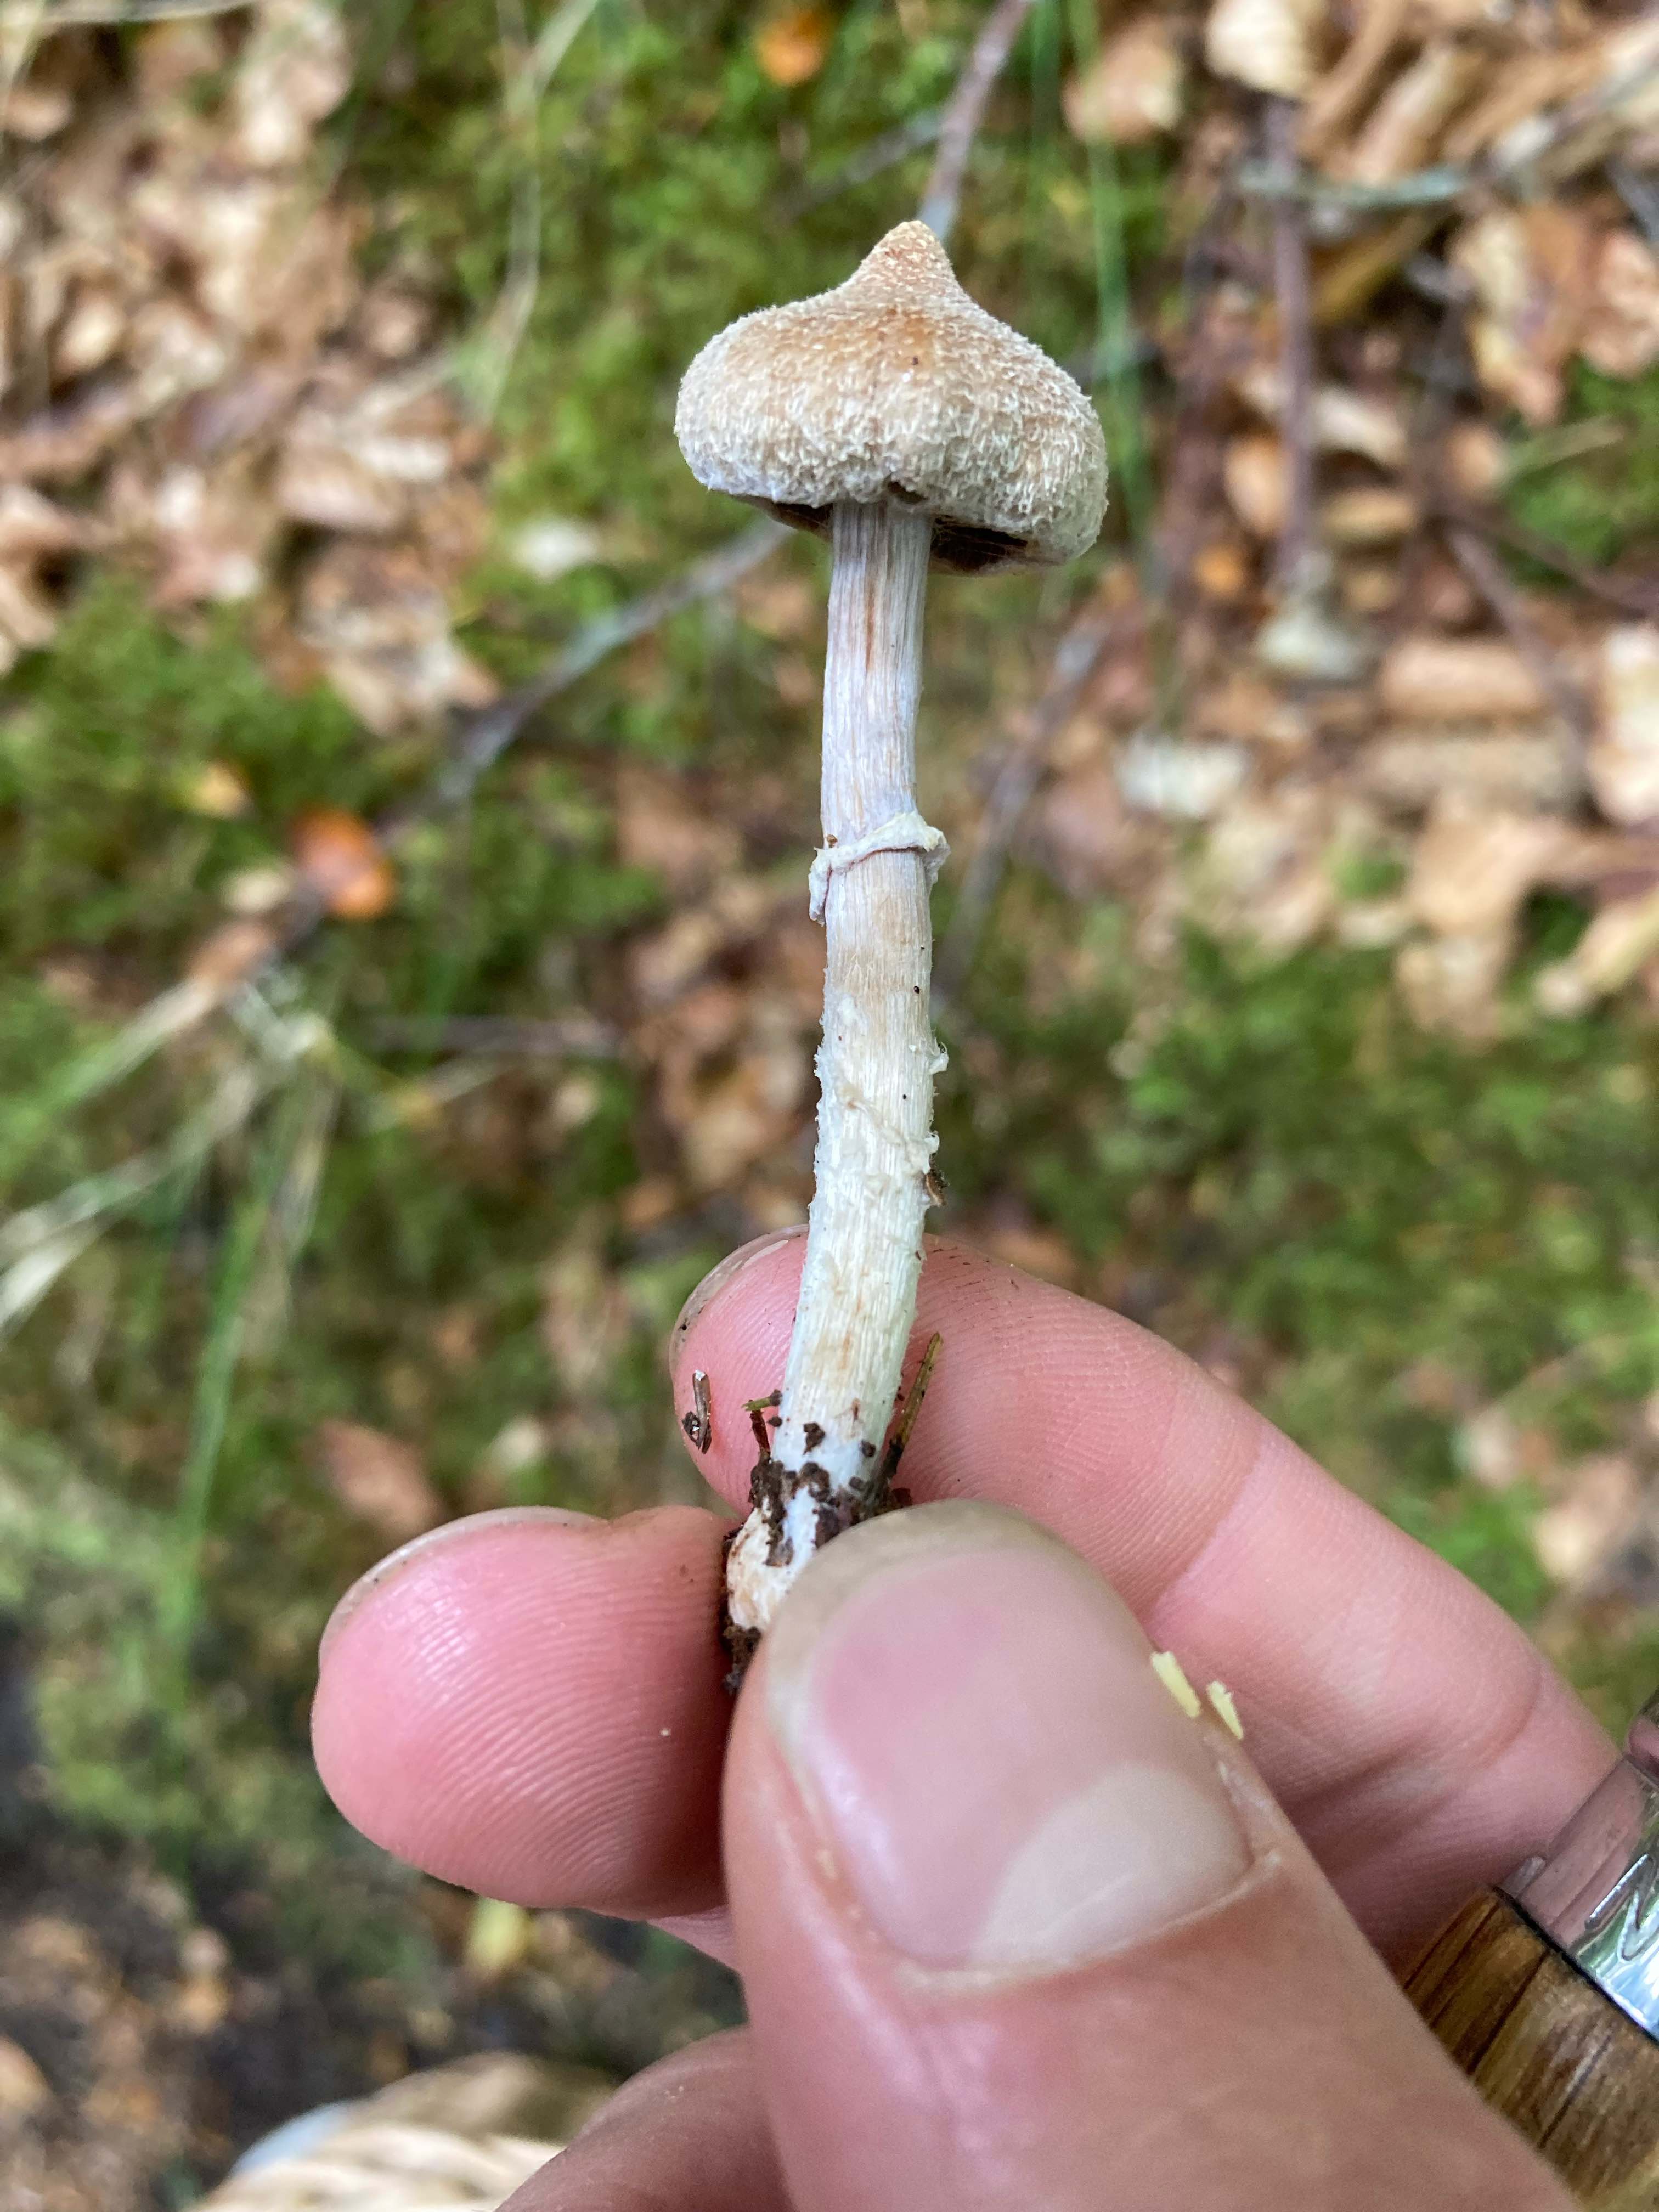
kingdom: Fungi
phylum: Basidiomycota
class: Agaricomycetes
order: Agaricales
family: Cortinariaceae
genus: Cortinarius
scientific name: Cortinarius flexipes
